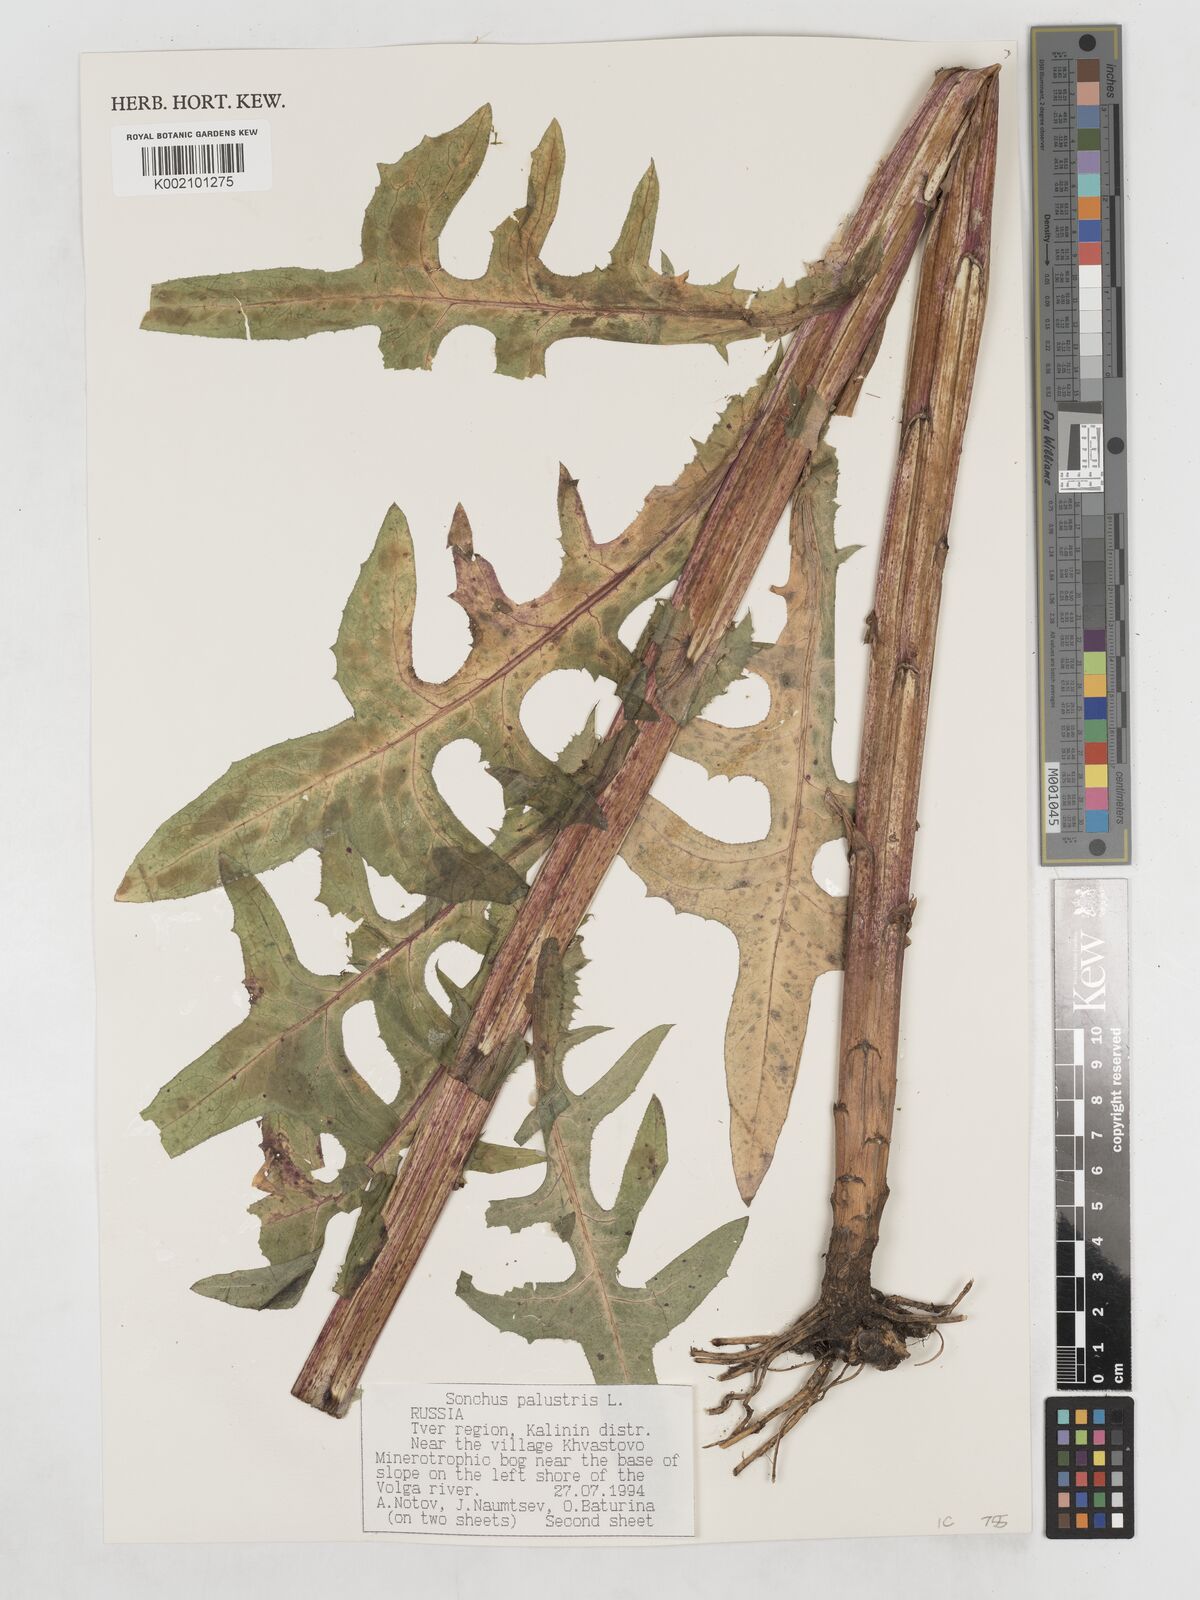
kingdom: Plantae
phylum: Tracheophyta
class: Magnoliopsida
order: Asterales
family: Asteraceae
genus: Sonchus
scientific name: Sonchus palustris
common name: Marsh sow-thistle
